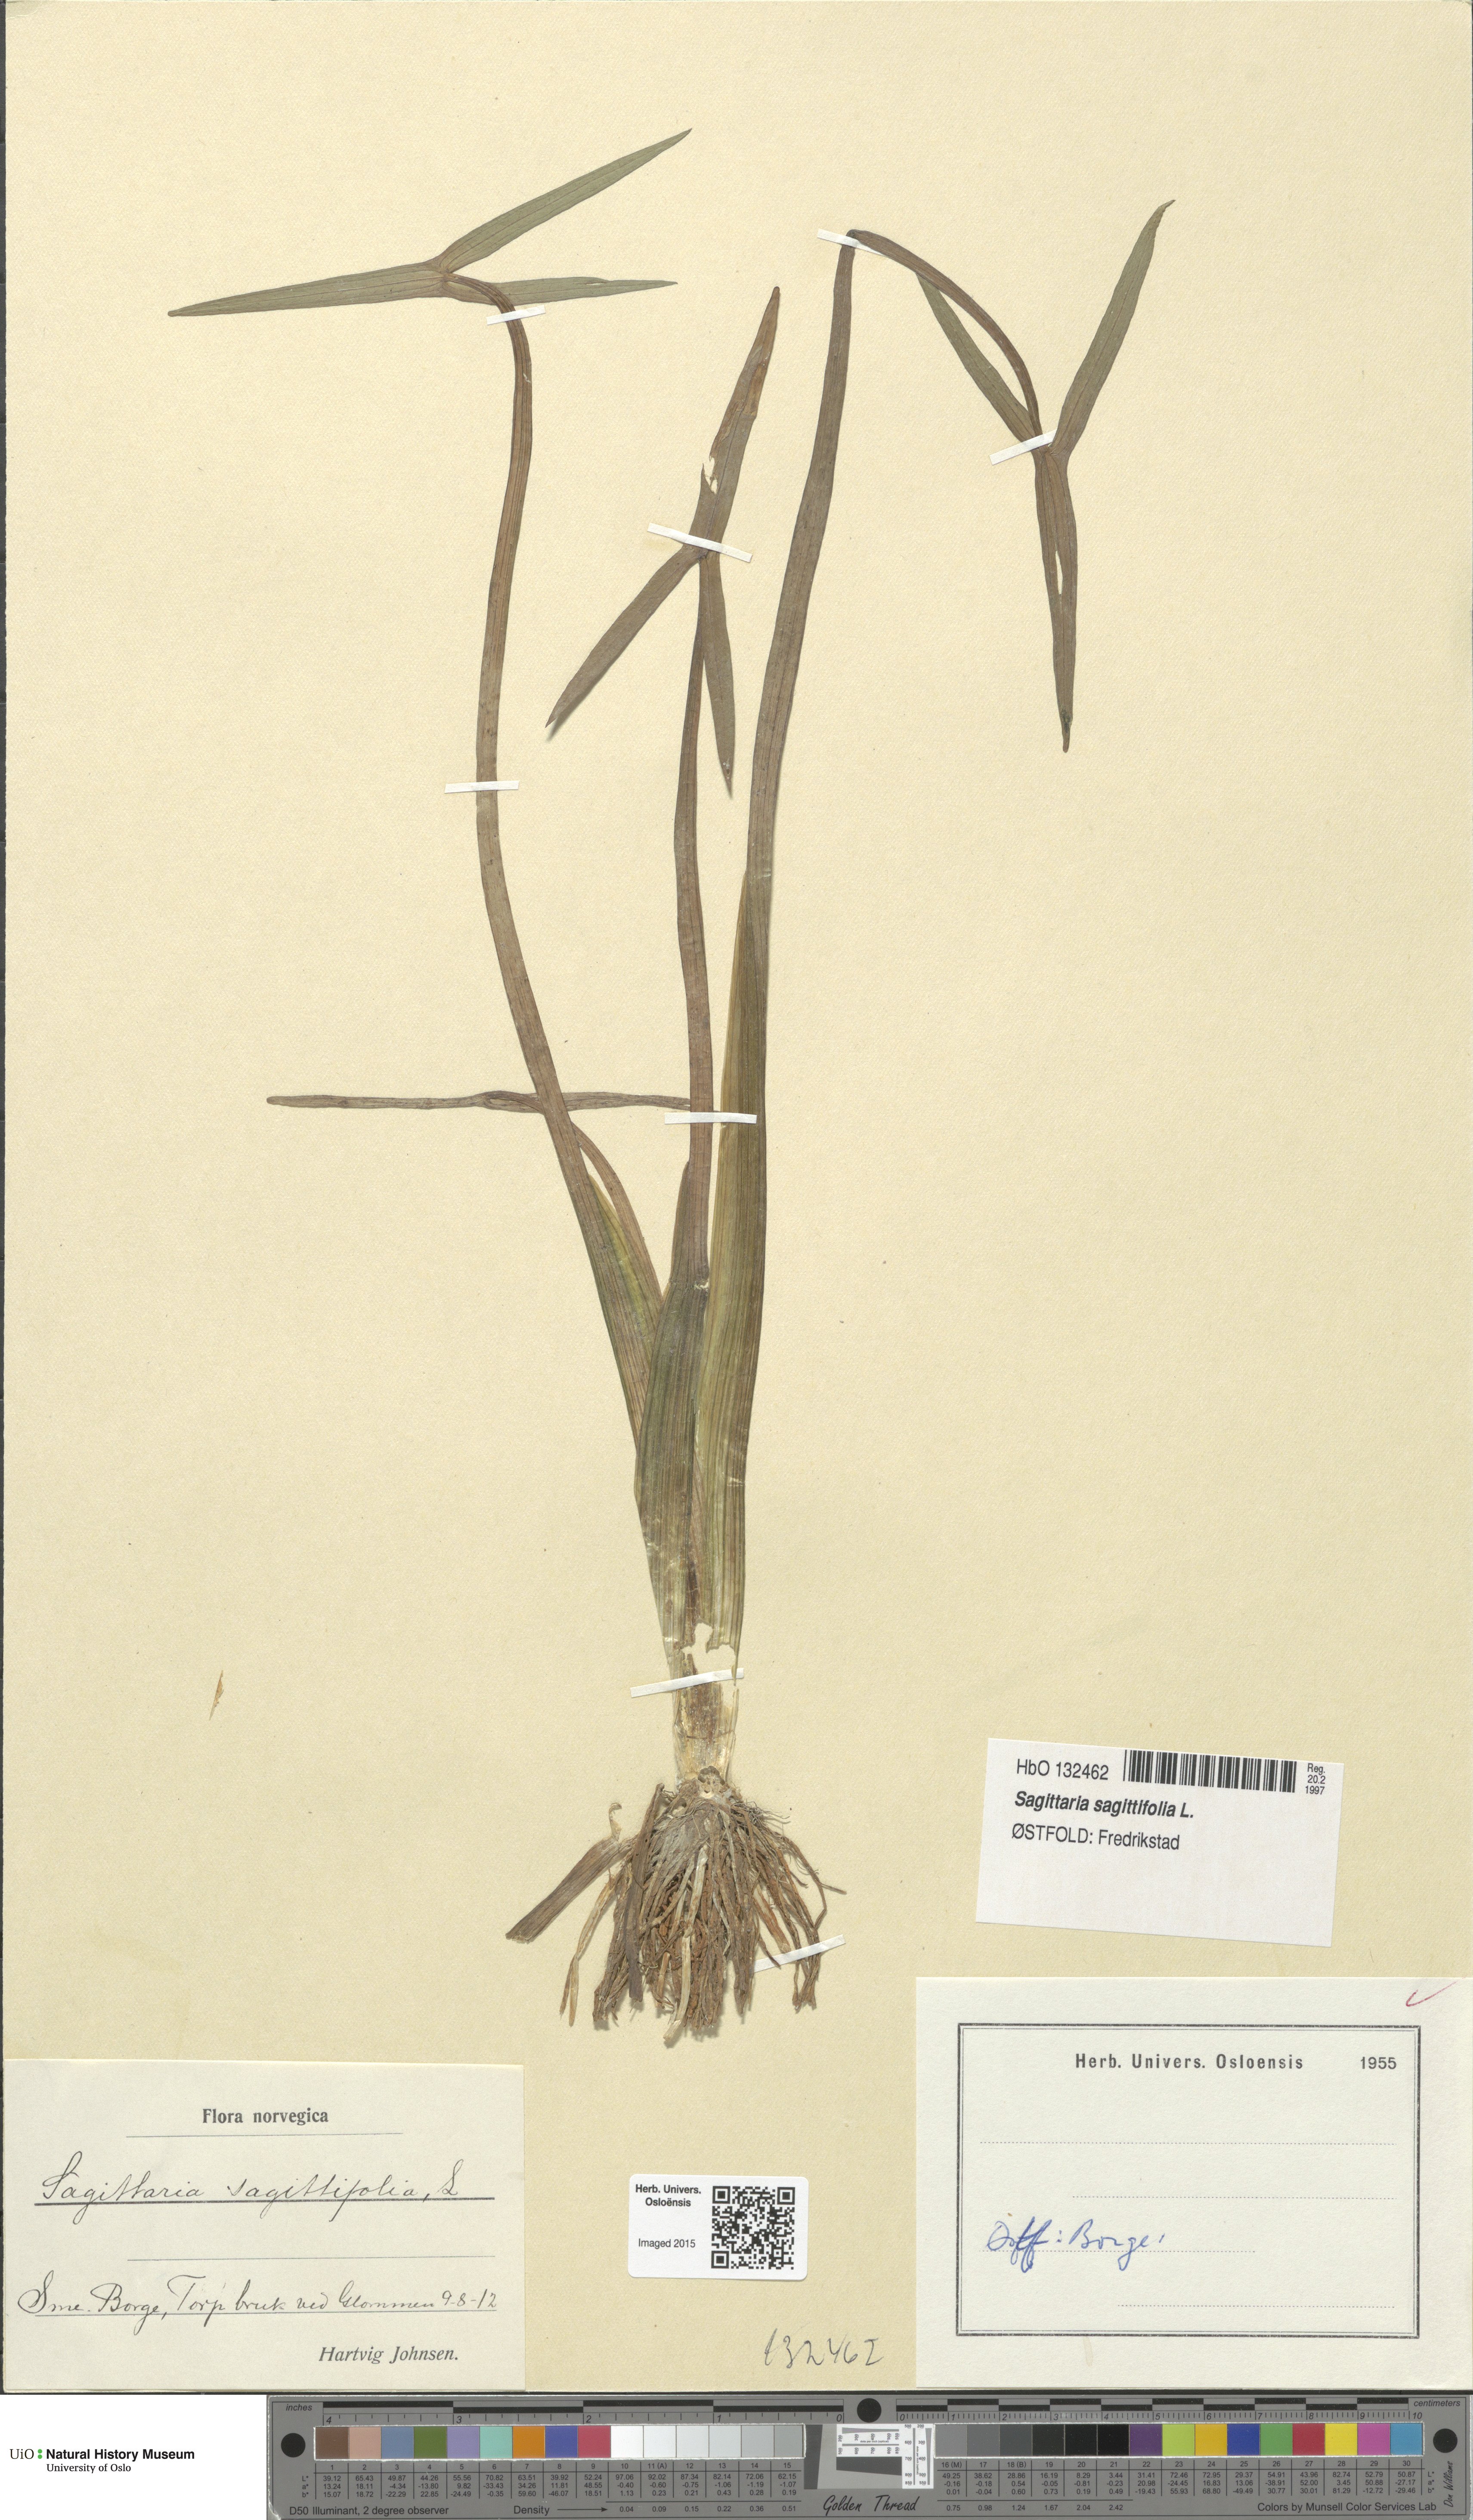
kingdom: Plantae
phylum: Tracheophyta
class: Liliopsida
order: Alismatales
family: Alismataceae
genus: Sagittaria
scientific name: Sagittaria sagittifolia
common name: Arrowhead
